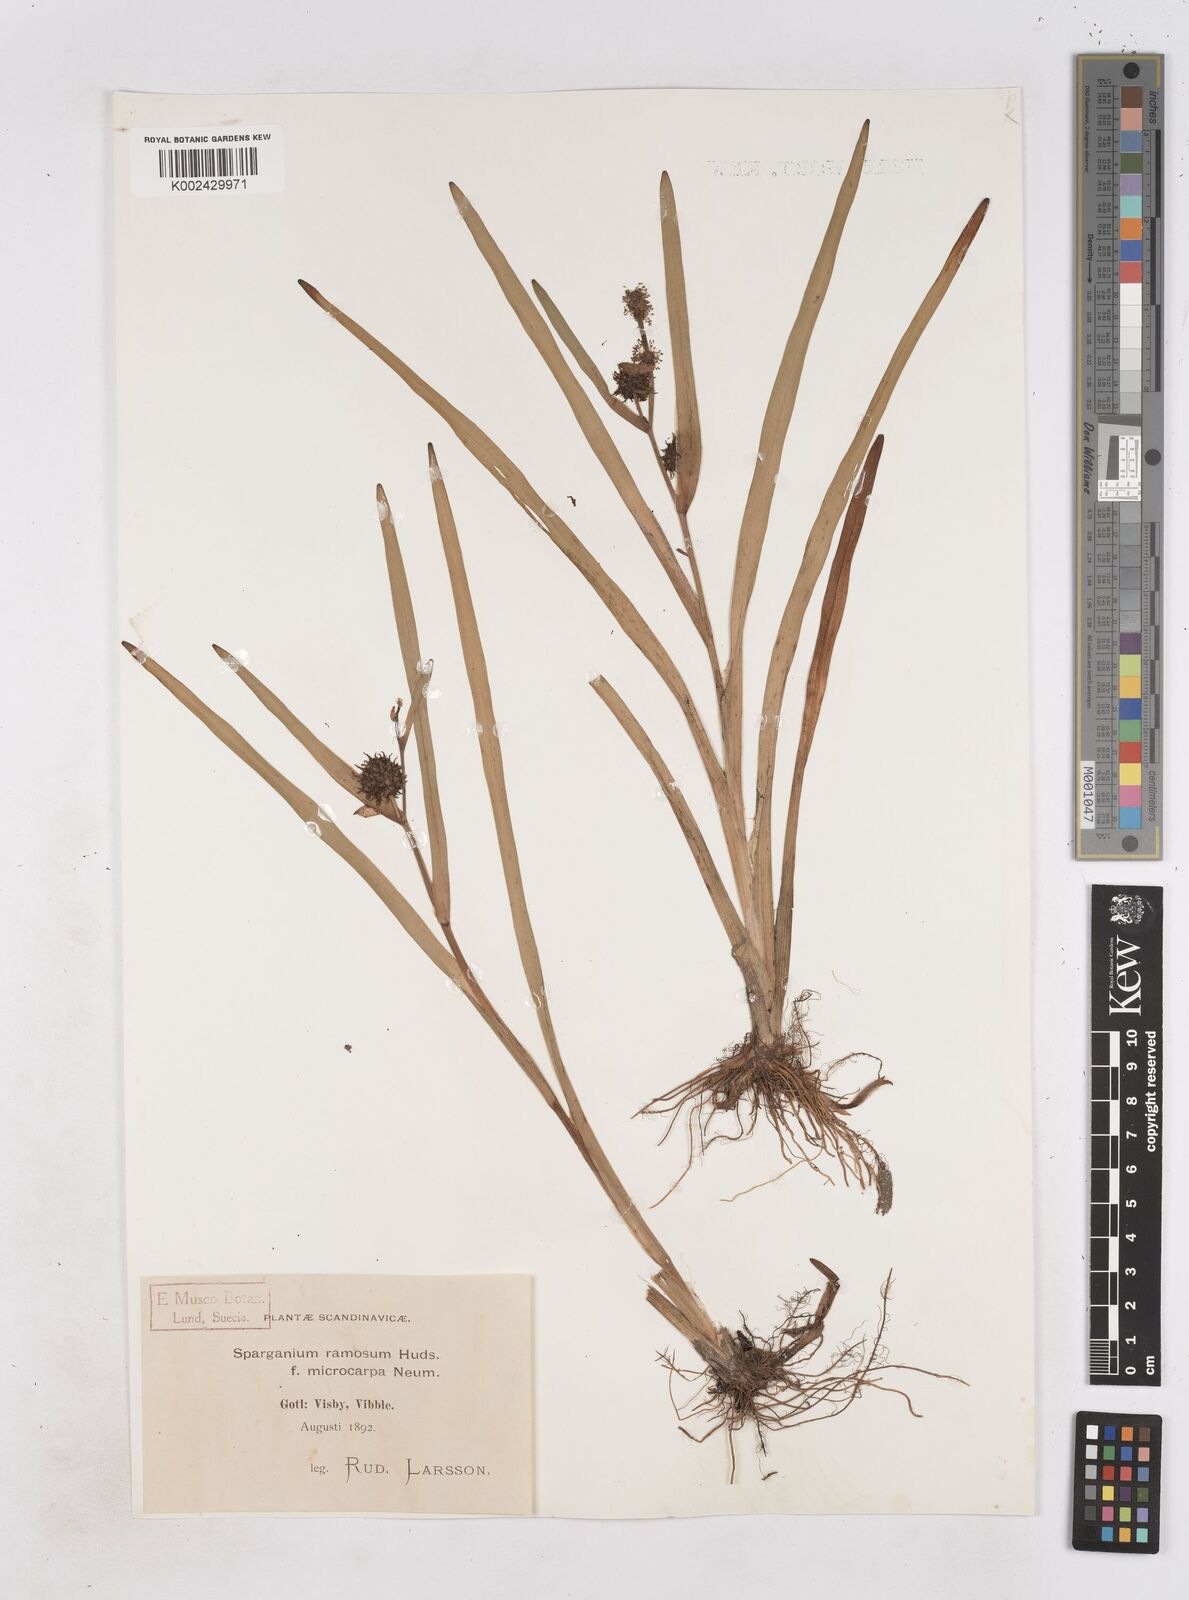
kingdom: Plantae
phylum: Tracheophyta
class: Liliopsida
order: Poales
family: Typhaceae
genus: Sparganium
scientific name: Sparganium erectum
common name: Branched bur-reed
